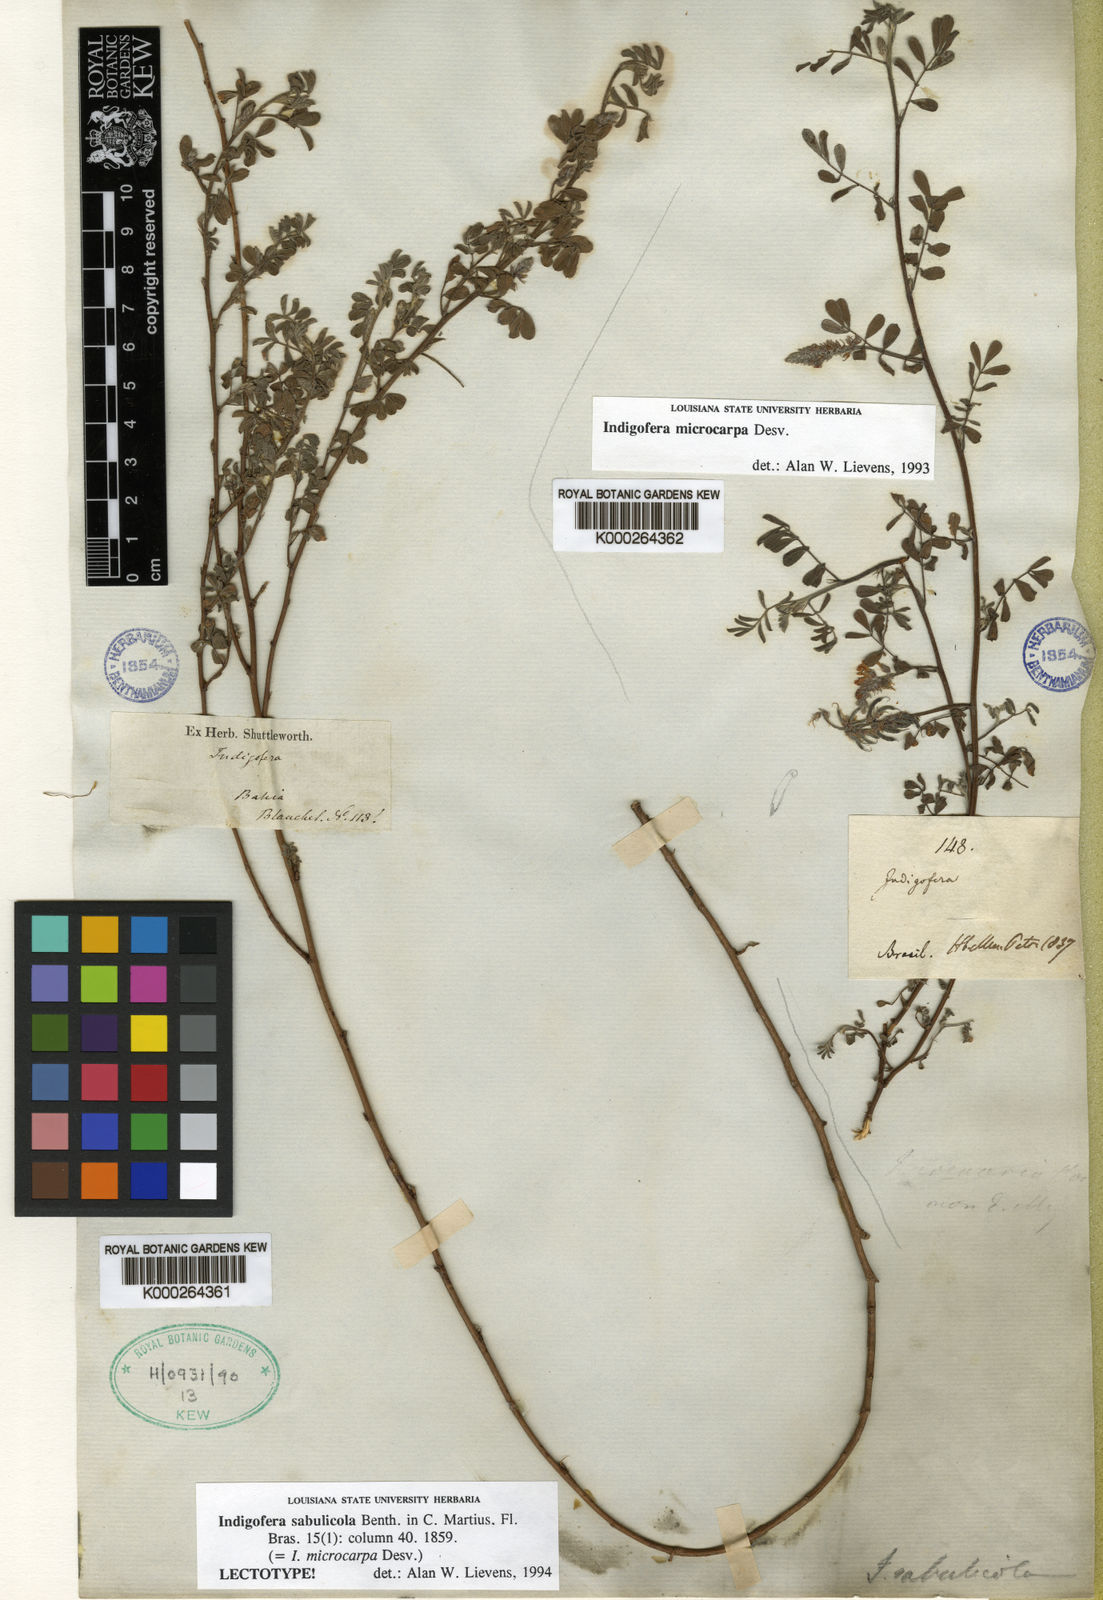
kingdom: Plantae
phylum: Tracheophyta
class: Magnoliopsida
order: Fabales
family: Fabaceae
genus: Indigofera
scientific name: Indigofera microcarpa
